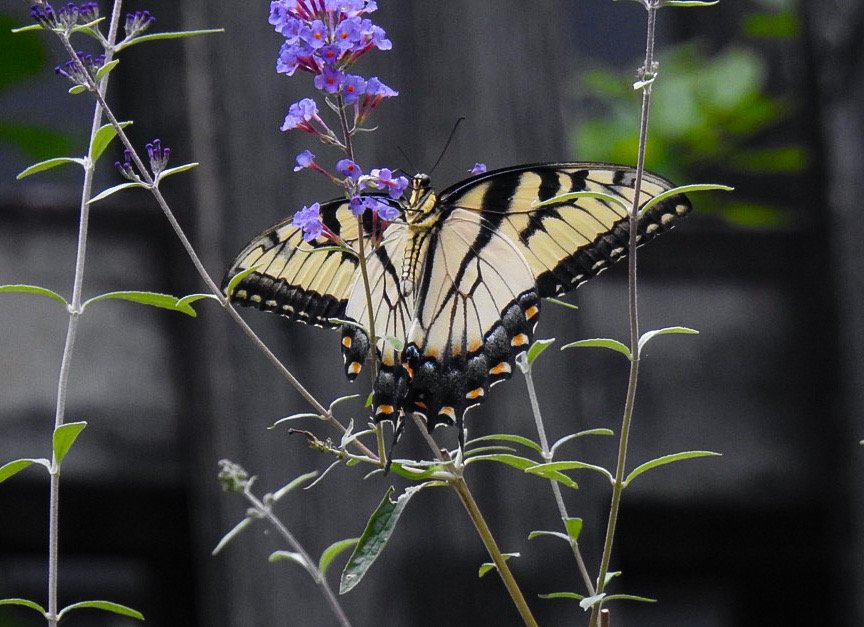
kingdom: Animalia
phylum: Arthropoda
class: Insecta
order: Lepidoptera
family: Papilionidae
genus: Pterourus
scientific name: Pterourus glaucus
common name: Eastern Tiger Swallowtail
